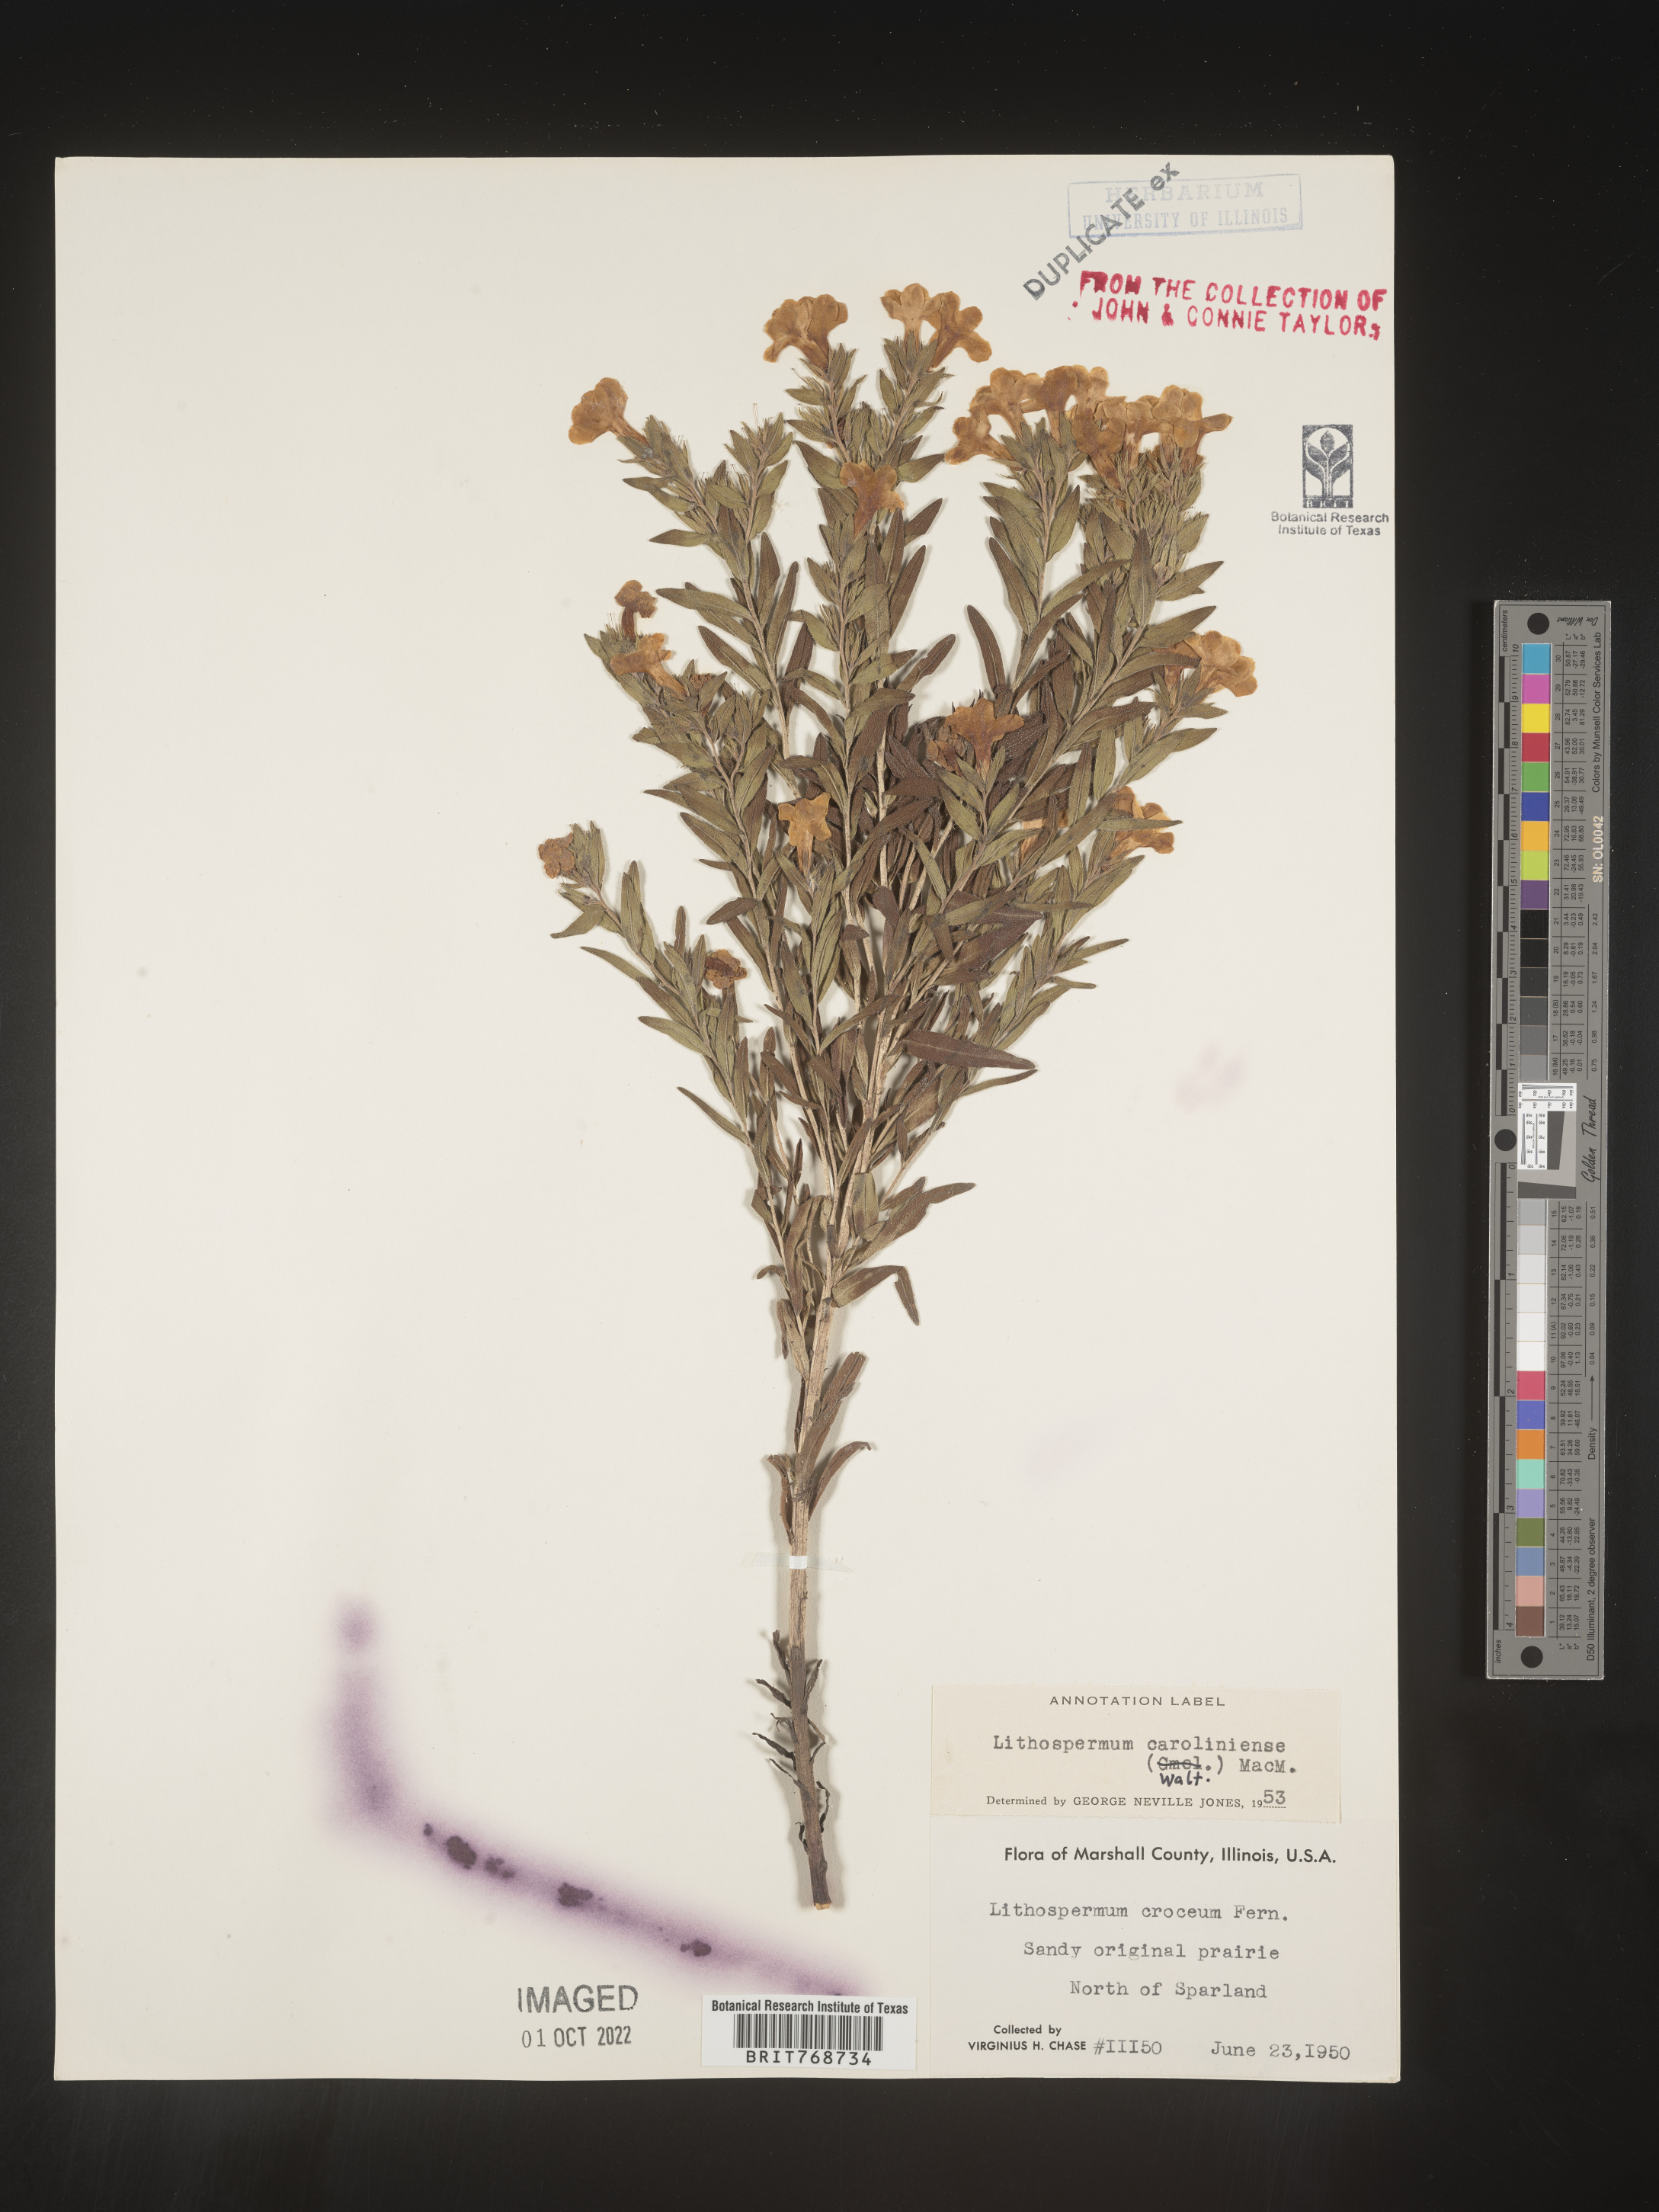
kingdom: Plantae
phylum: Tracheophyta
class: Magnoliopsida
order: Boraginales
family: Boraginaceae
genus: Lithospermum
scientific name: Lithospermum caroliniense
